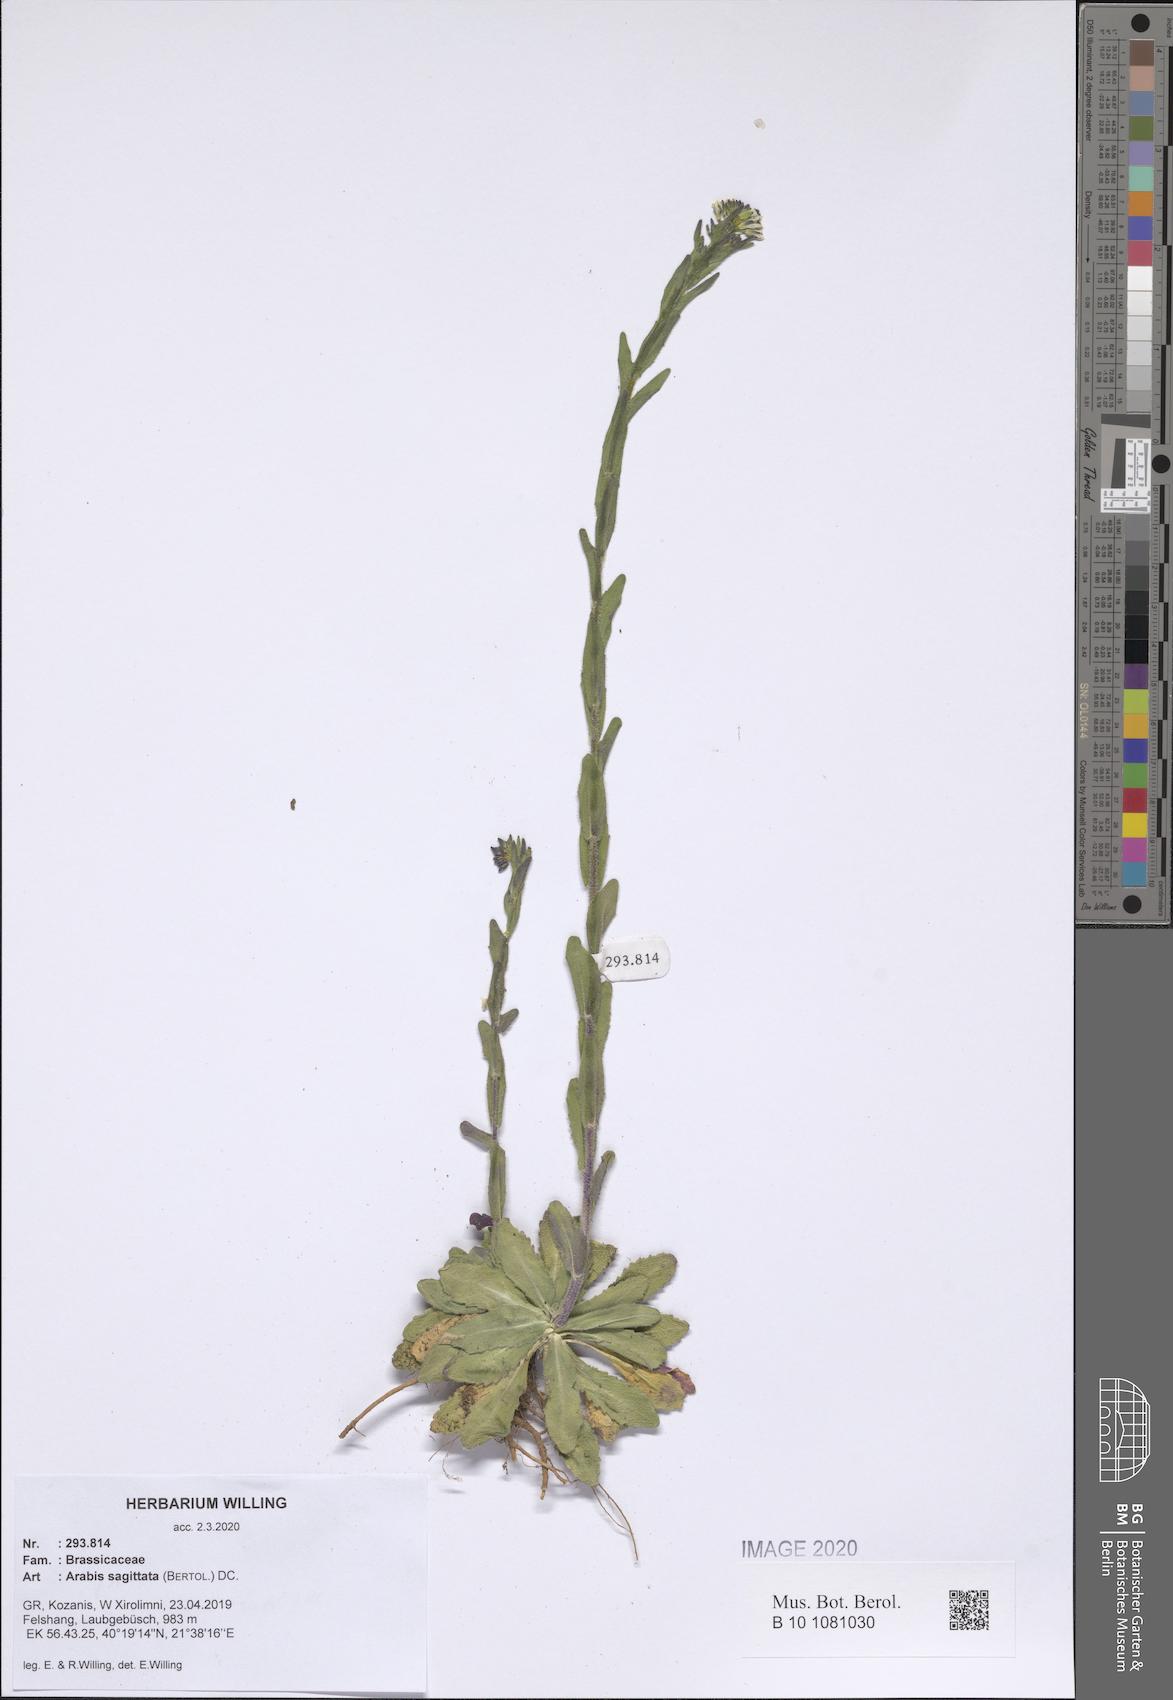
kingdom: Plantae
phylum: Tracheophyta
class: Magnoliopsida
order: Brassicales
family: Brassicaceae
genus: Arabis
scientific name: Arabis sagittata
